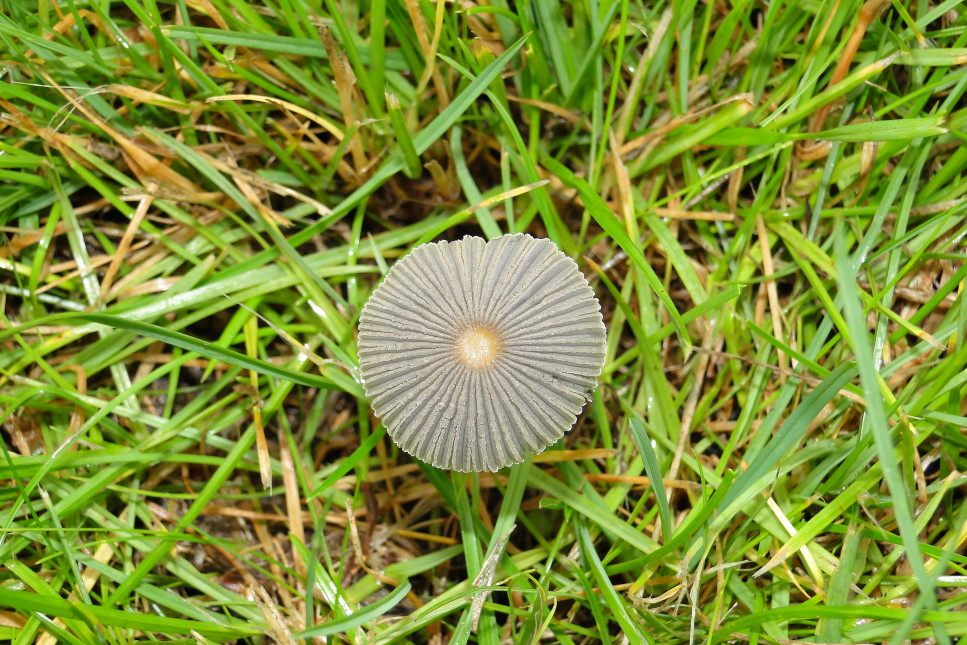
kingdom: Fungi
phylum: Basidiomycota
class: Agaricomycetes
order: Agaricales
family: Psathyrellaceae
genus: Parasola
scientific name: Parasola plicatilis
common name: plæne-hjulhat
